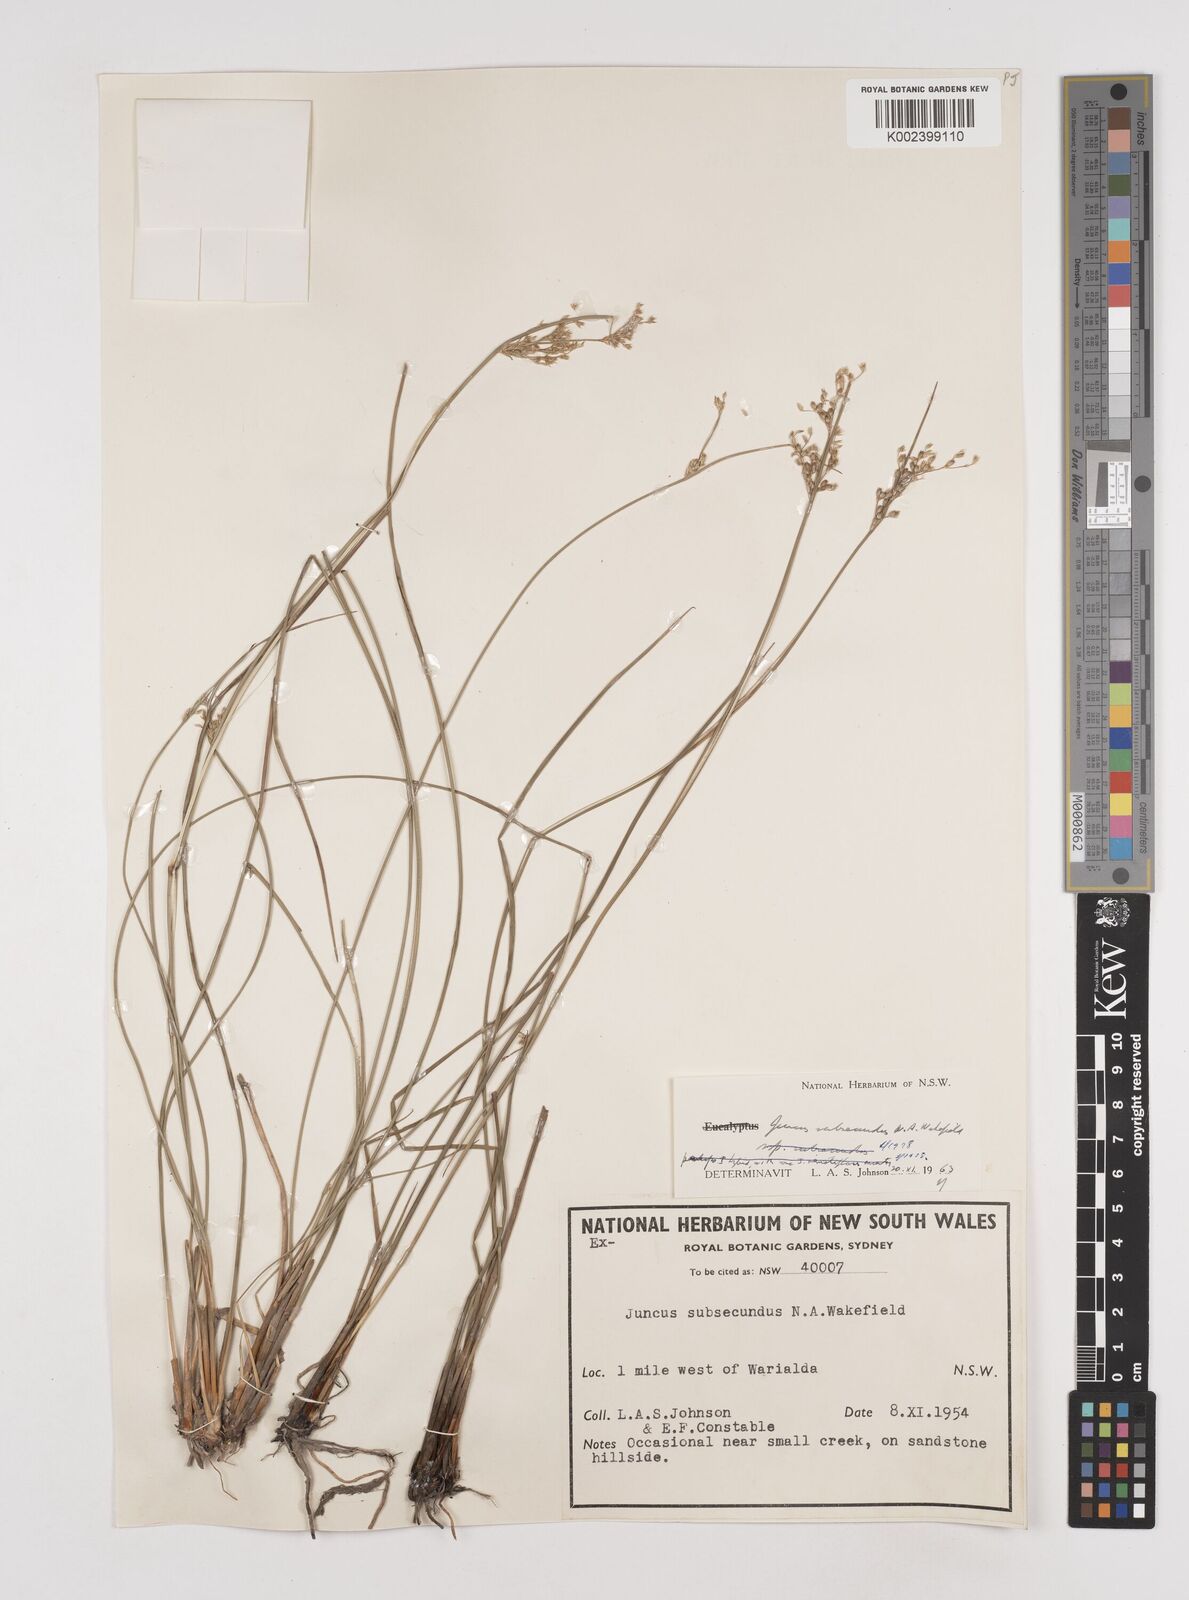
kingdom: Plantae
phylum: Tracheophyta
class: Liliopsida
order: Poales
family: Juncaceae
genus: Juncus
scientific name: Juncus subsecundus
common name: Fingered rush
